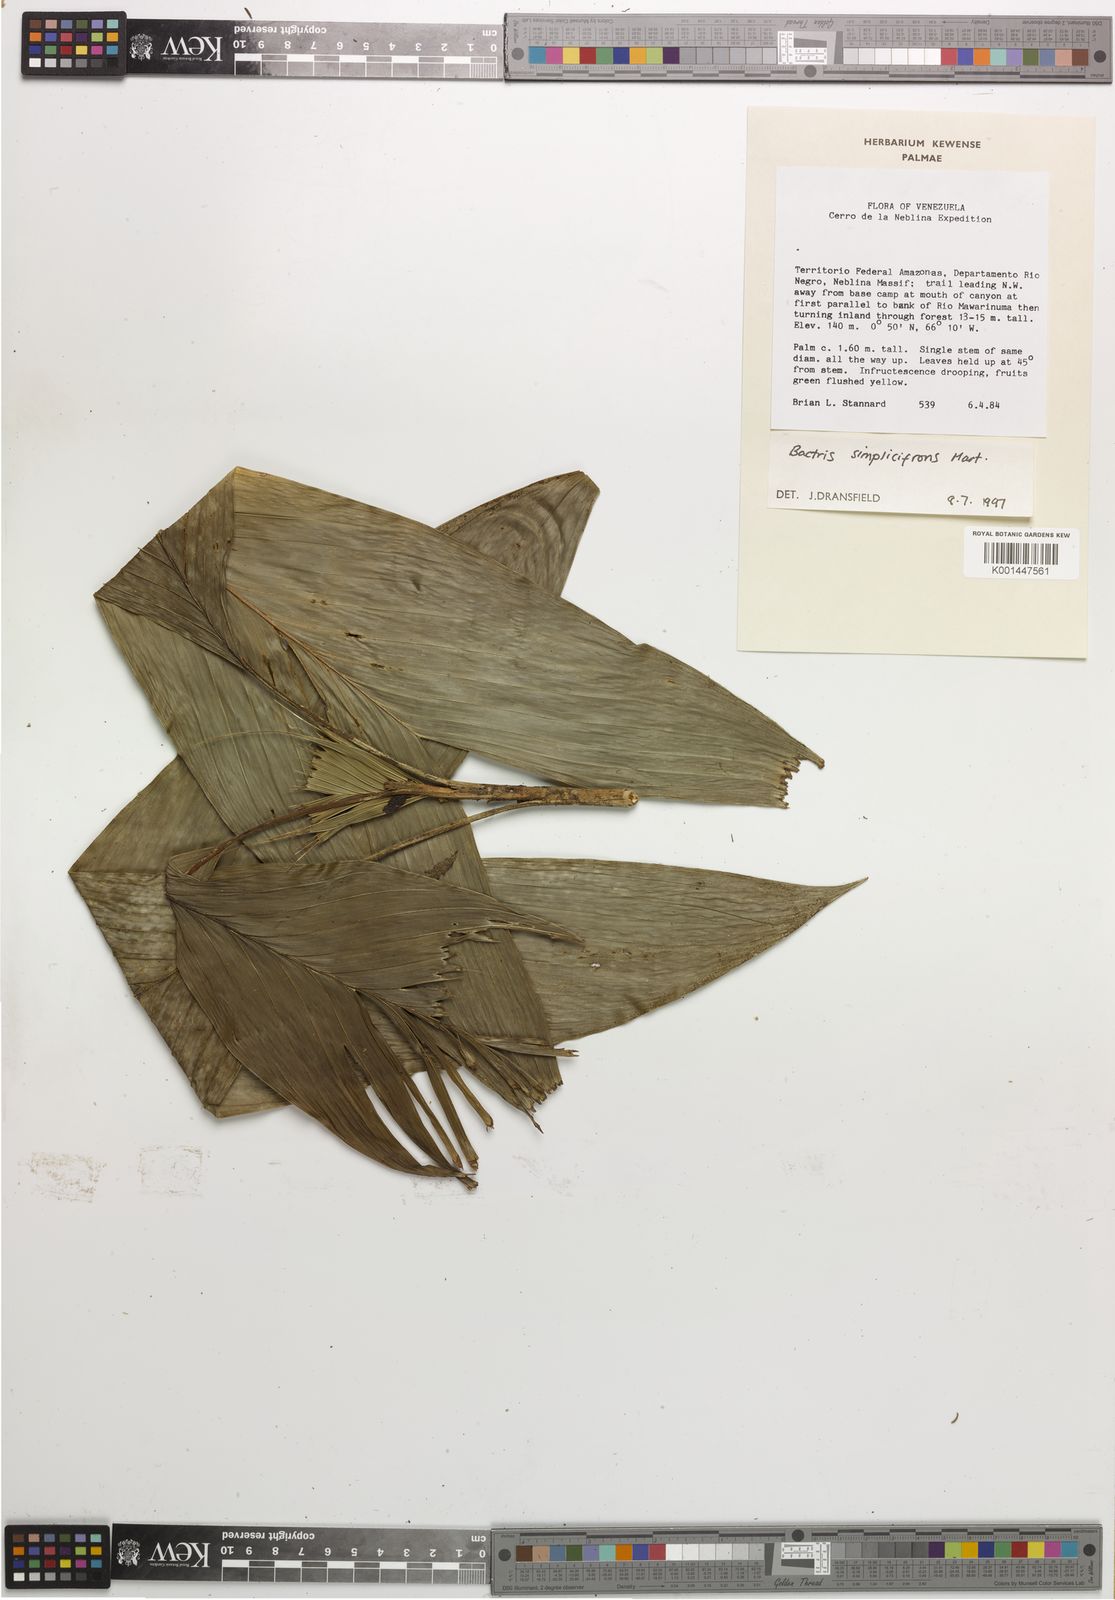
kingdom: Plantae
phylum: Tracheophyta
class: Liliopsida
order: Arecales
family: Arecaceae
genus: Bactris
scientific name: Bactris simplicifrons
